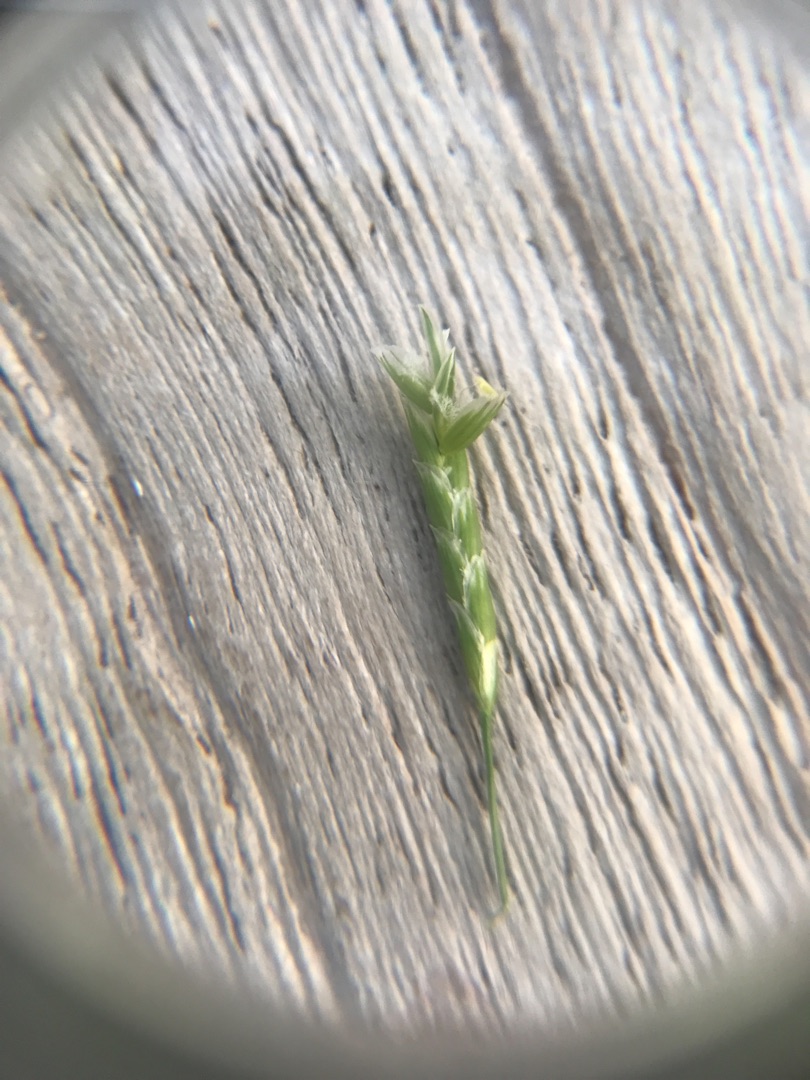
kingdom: Plantae
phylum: Tracheophyta
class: Liliopsida
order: Poales
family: Poaceae
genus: Glyceria
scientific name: Glyceria notata
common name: Butblomstret sødgræs
